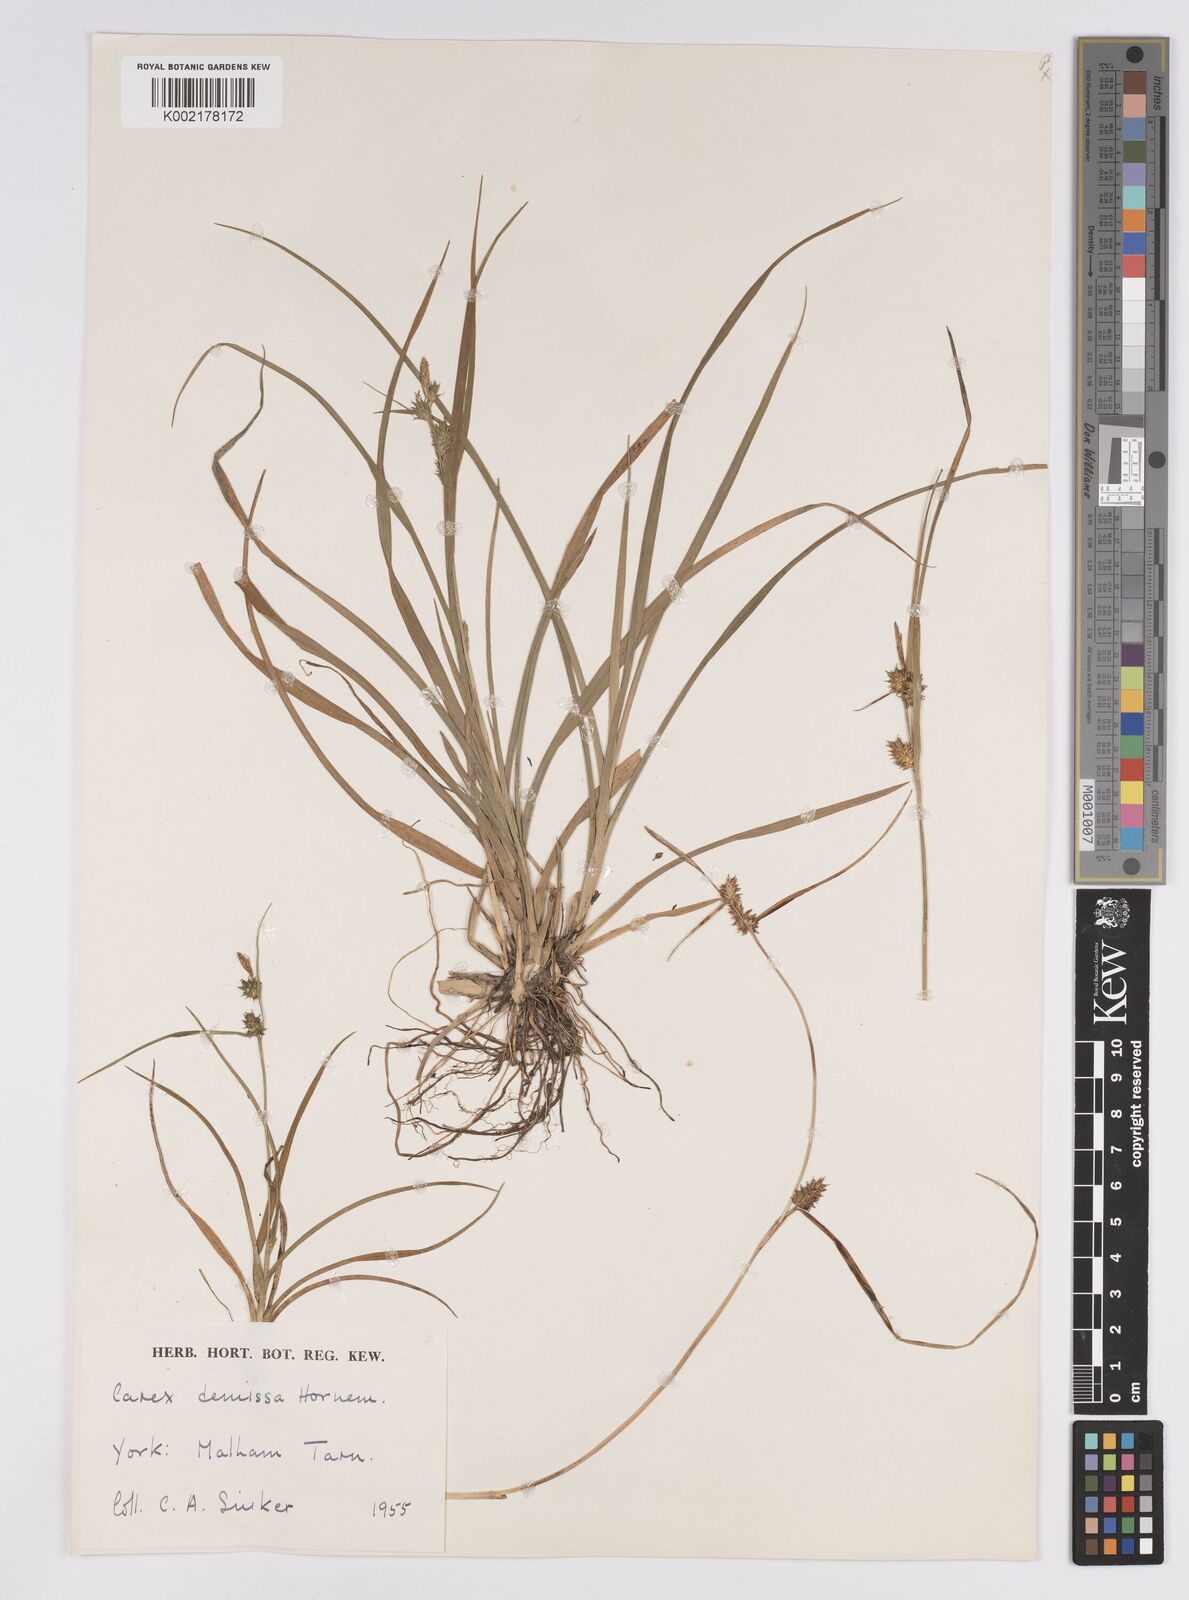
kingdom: Plantae
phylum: Tracheophyta
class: Liliopsida
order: Poales
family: Cyperaceae
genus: Carex
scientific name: Carex demissa
